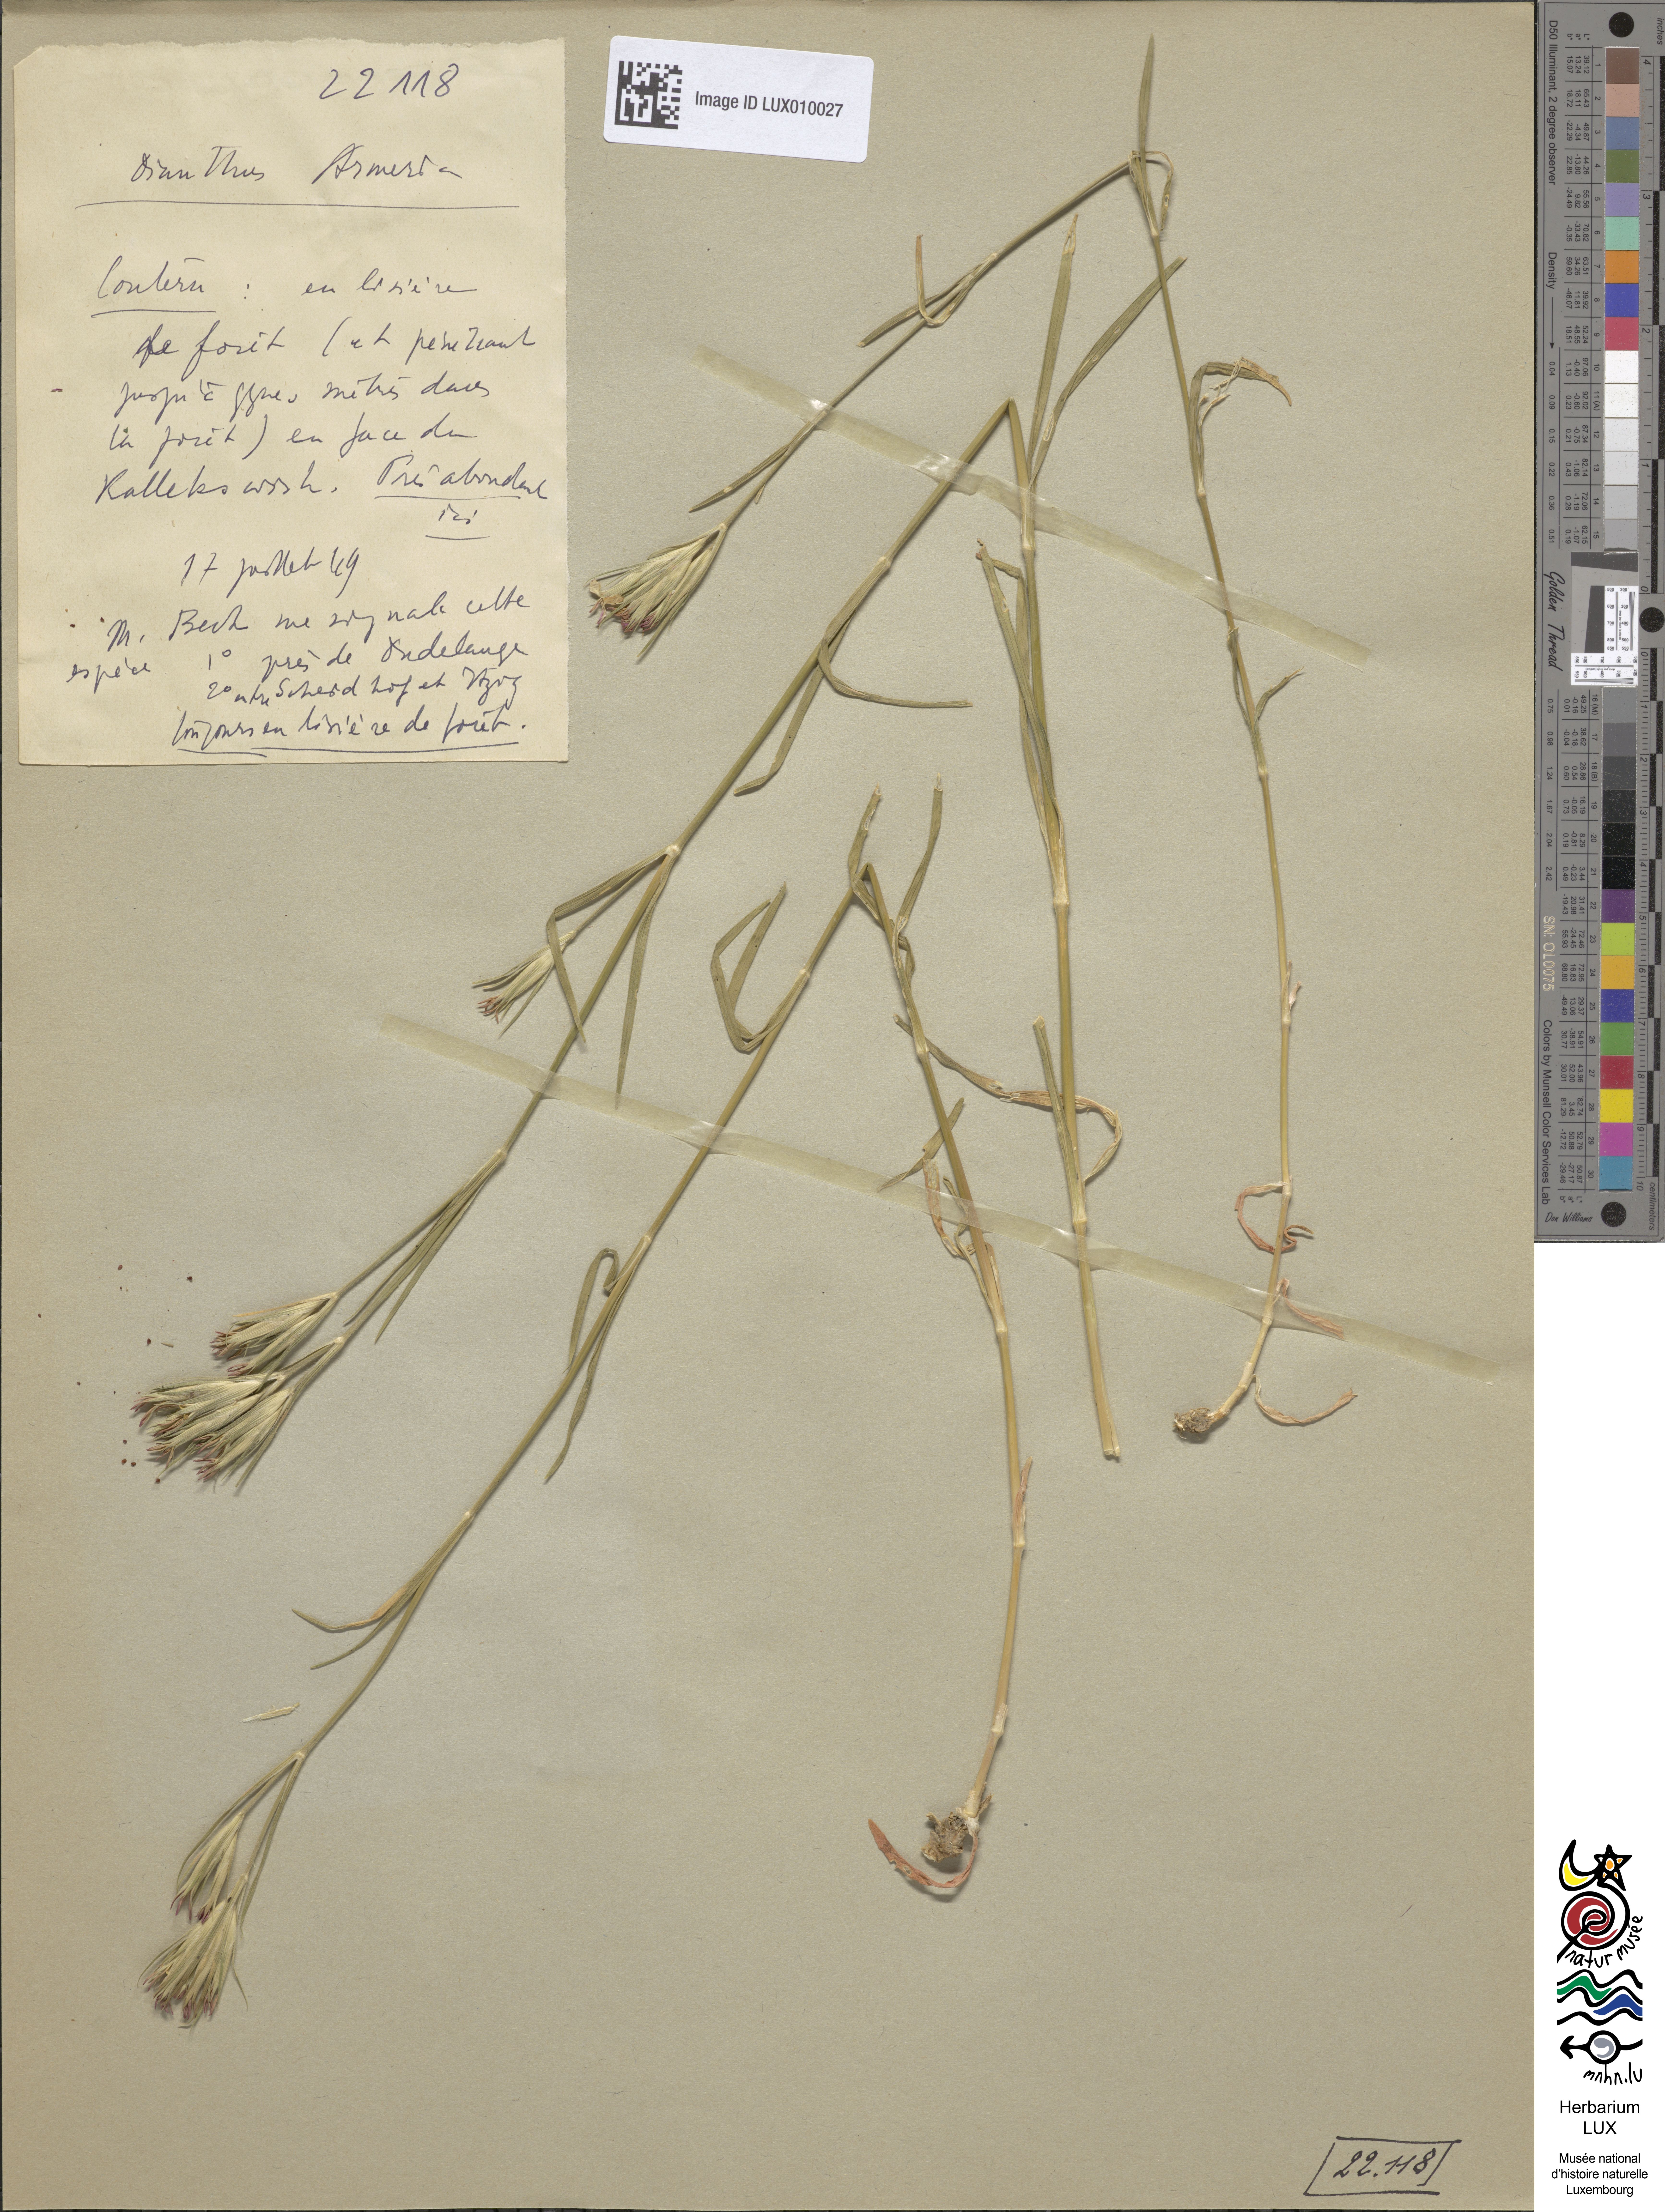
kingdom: Plantae
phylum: Tracheophyta
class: Magnoliopsida
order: Caryophyllales
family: Caryophyllaceae
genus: Dianthus
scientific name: Dianthus armeria
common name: Deptford pink
